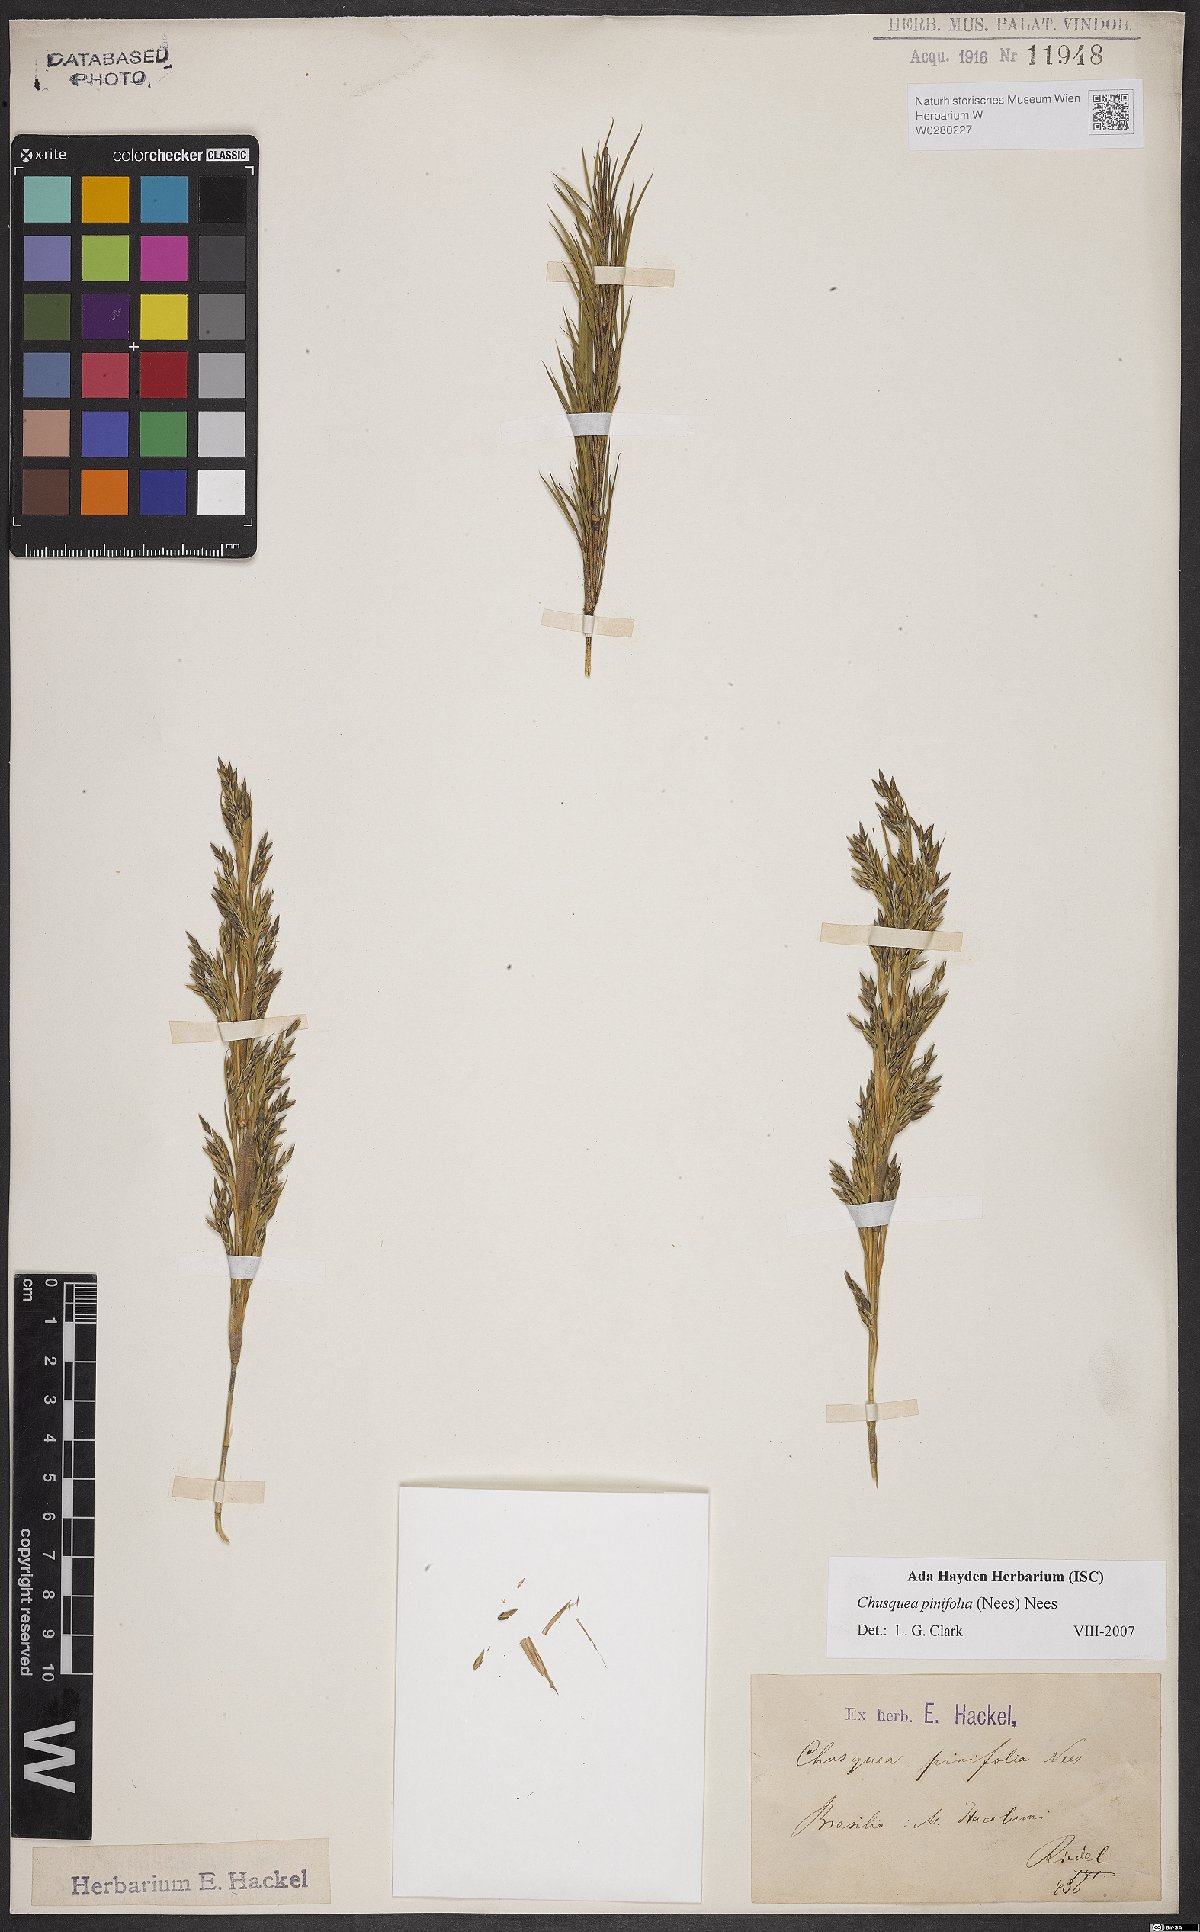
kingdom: Plantae
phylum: Tracheophyta
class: Liliopsida
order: Poales
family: Poaceae
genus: Chusquea
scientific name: Chusquea pinifolia
